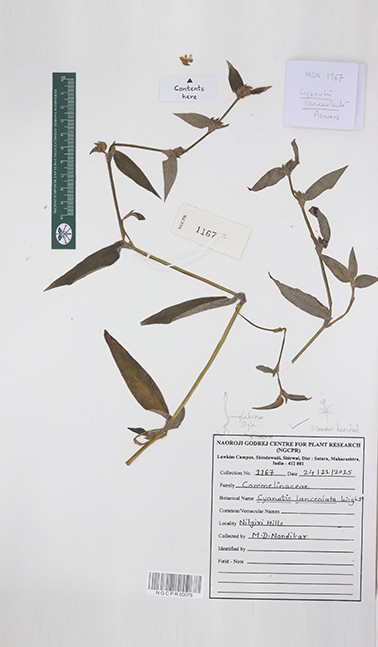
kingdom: Plantae
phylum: Tracheophyta
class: Liliopsida
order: Commelinales
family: Commelinaceae
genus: Cyanotis
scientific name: Cyanotis lanceolata
